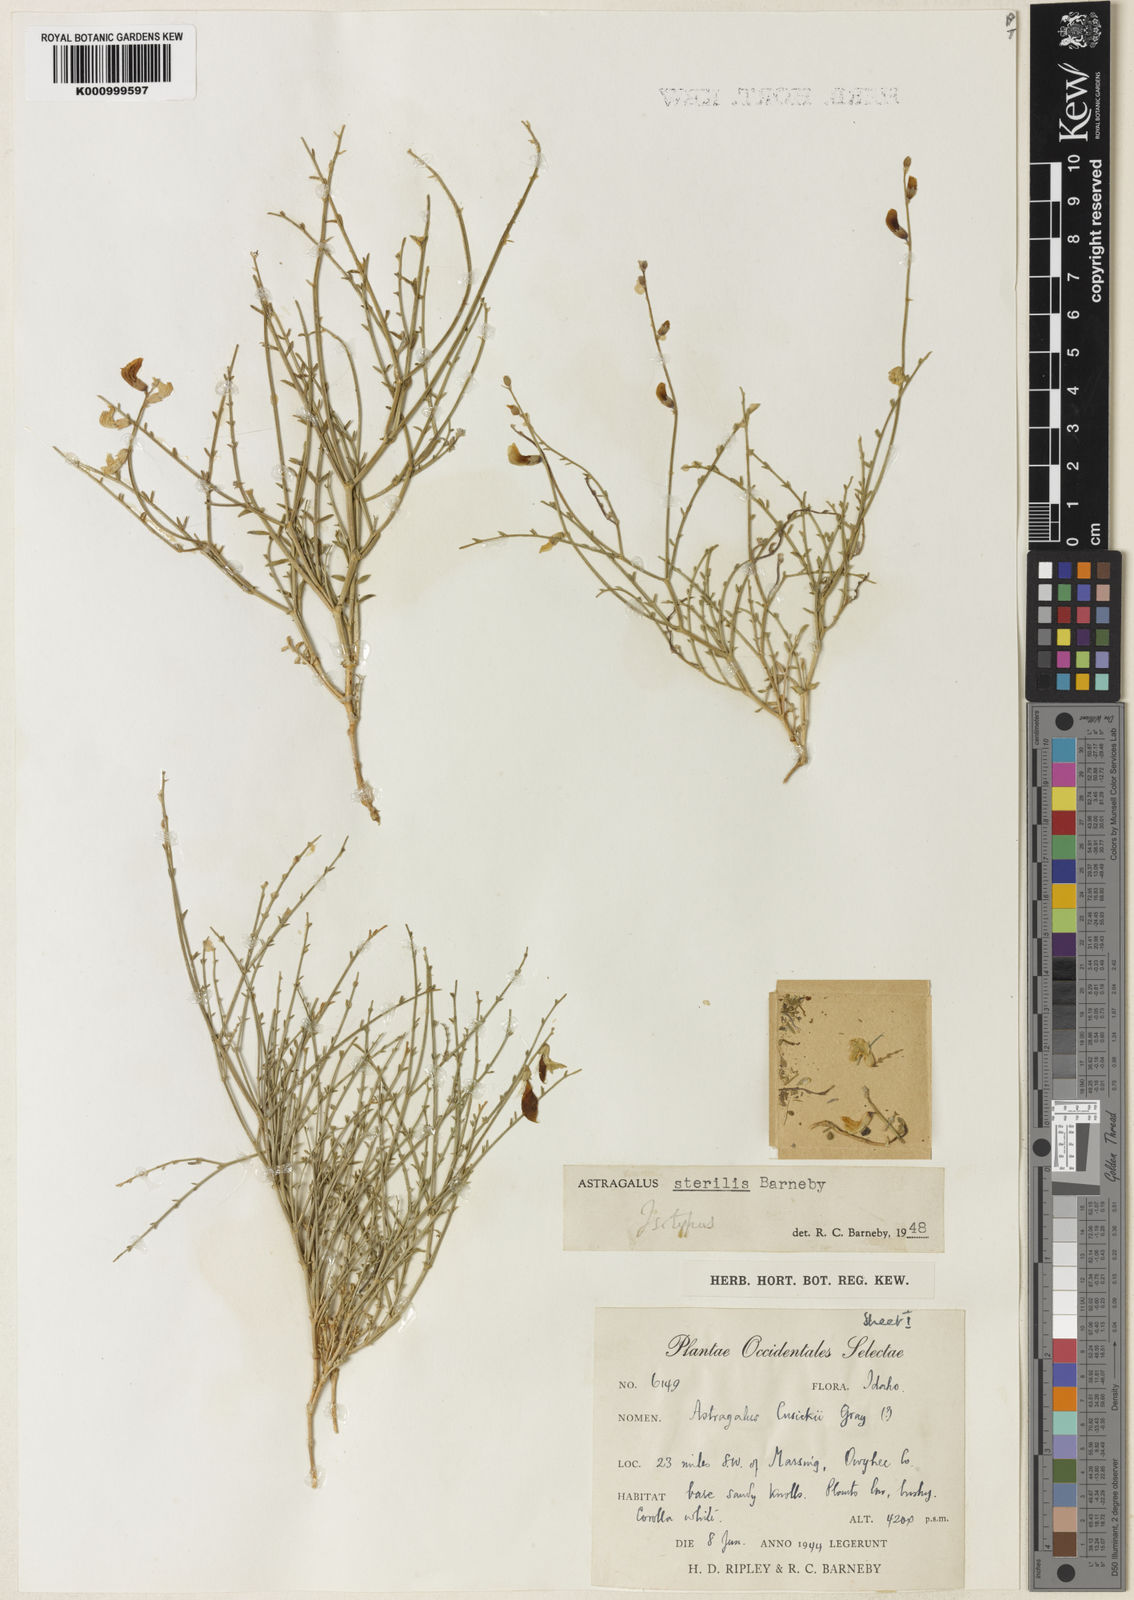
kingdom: Plantae
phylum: Tracheophyta
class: Magnoliopsida
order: Fabales
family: Fabaceae
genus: Astragalus
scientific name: Astragalus sterilis
